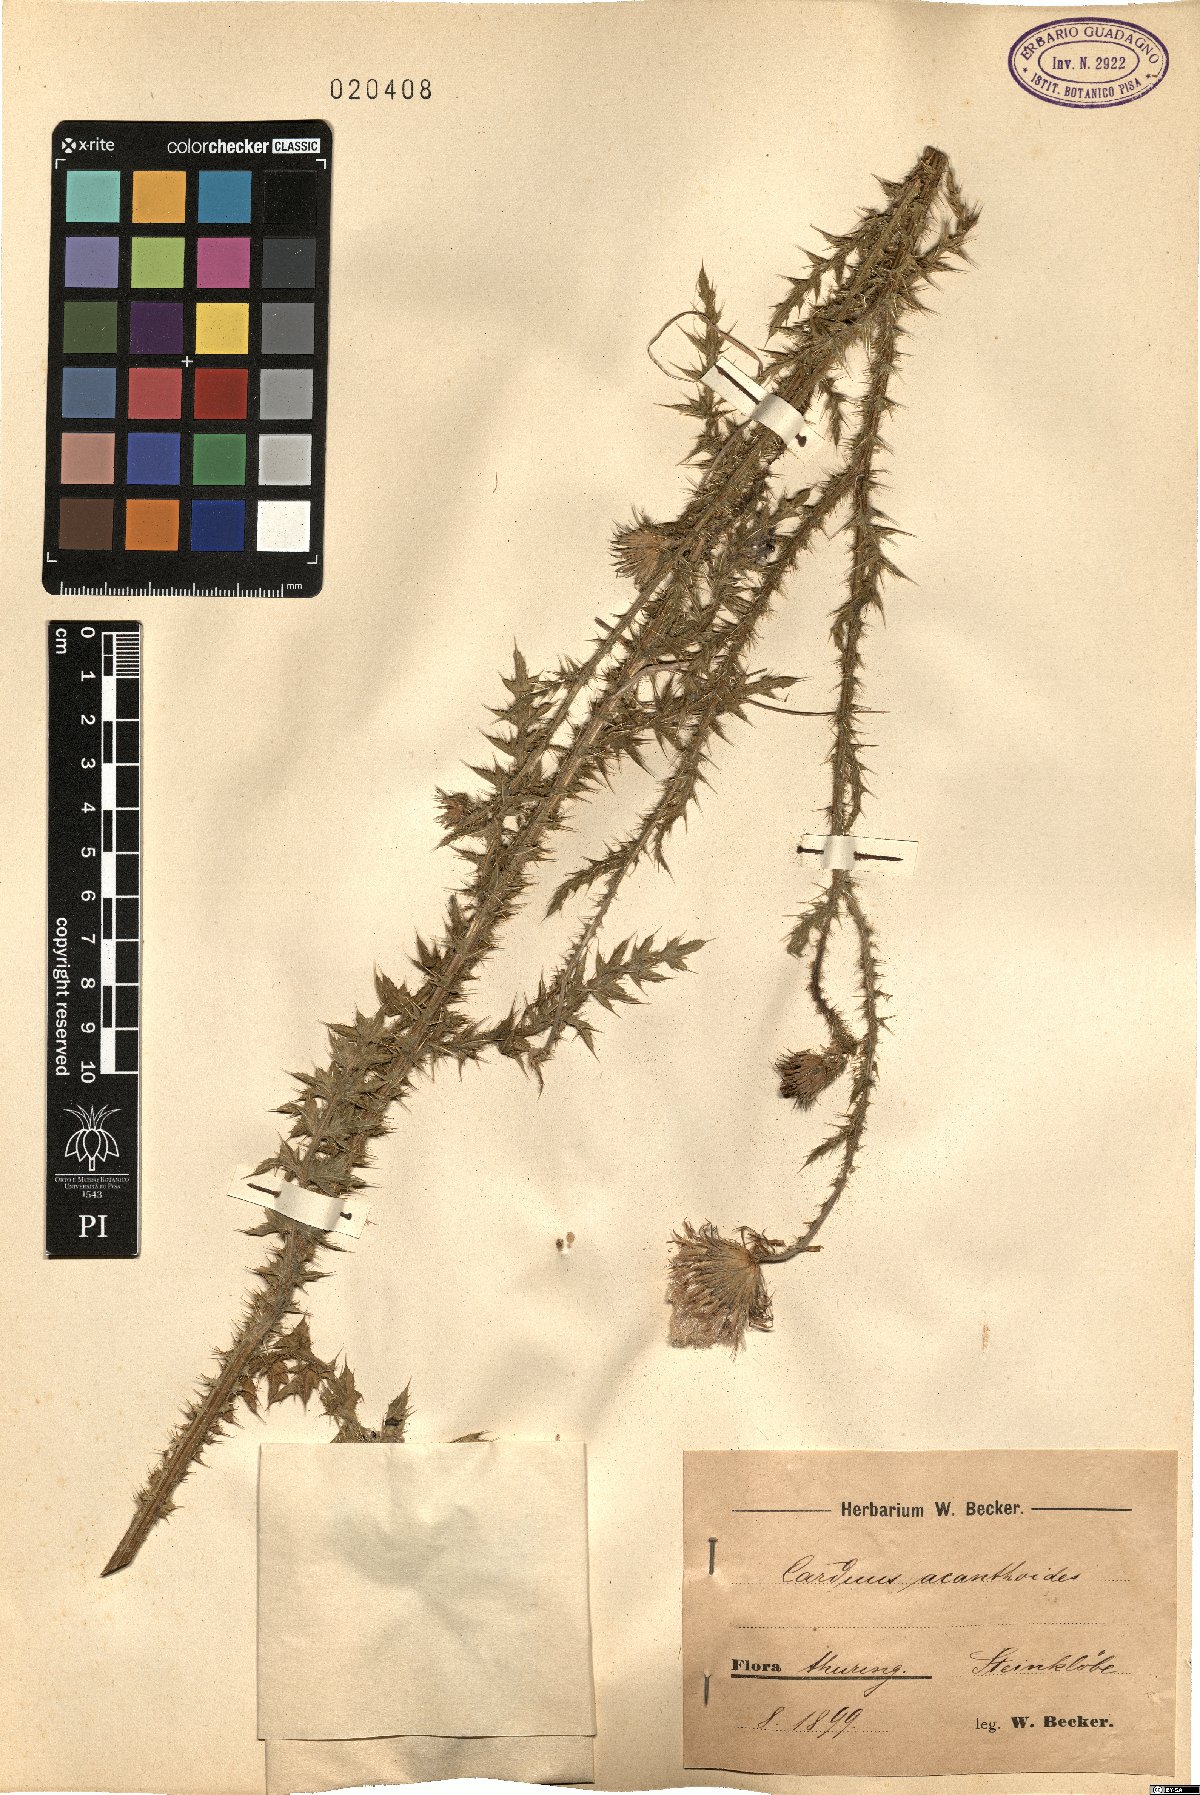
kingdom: Plantae
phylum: Tracheophyta
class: Magnoliopsida
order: Asterales
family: Asteraceae
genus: Carduus
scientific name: Carduus acanthoides
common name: Plumeless thistle
